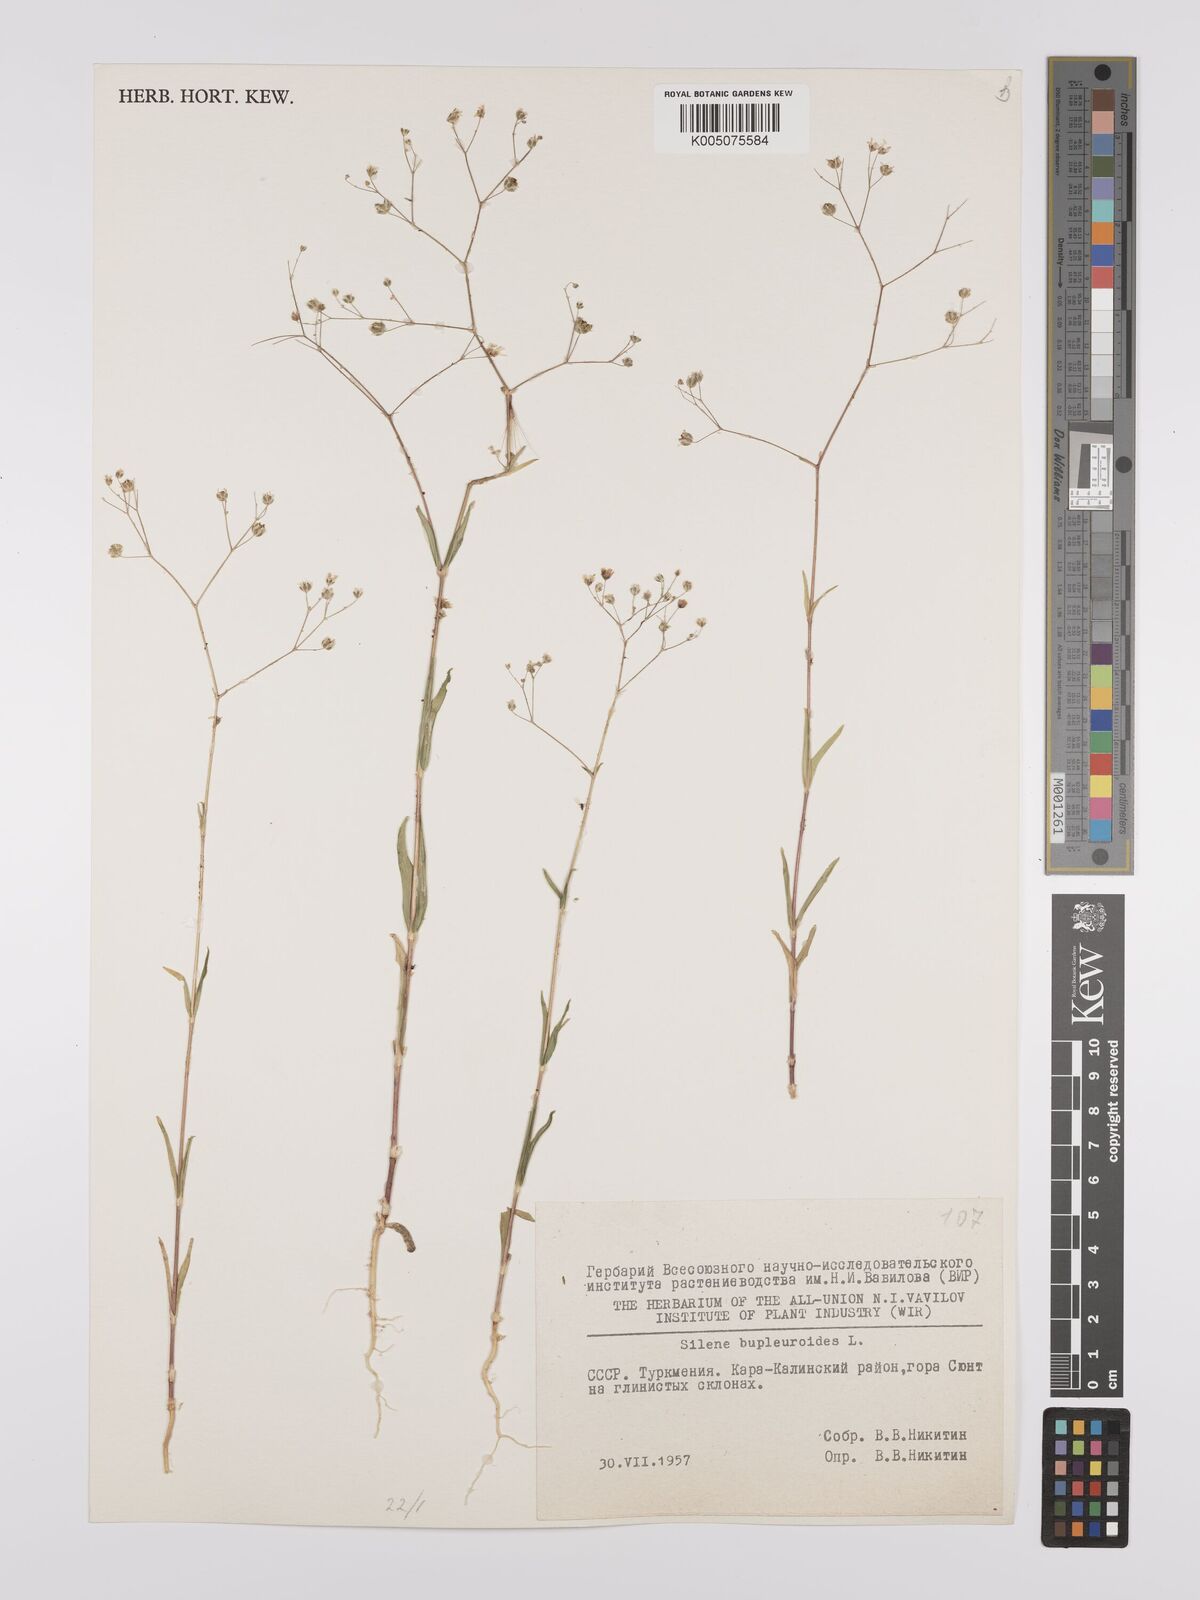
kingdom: Plantae
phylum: Tracheophyta
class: Magnoliopsida
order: Caryophyllales
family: Caryophyllaceae
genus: Silene
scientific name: Silene
